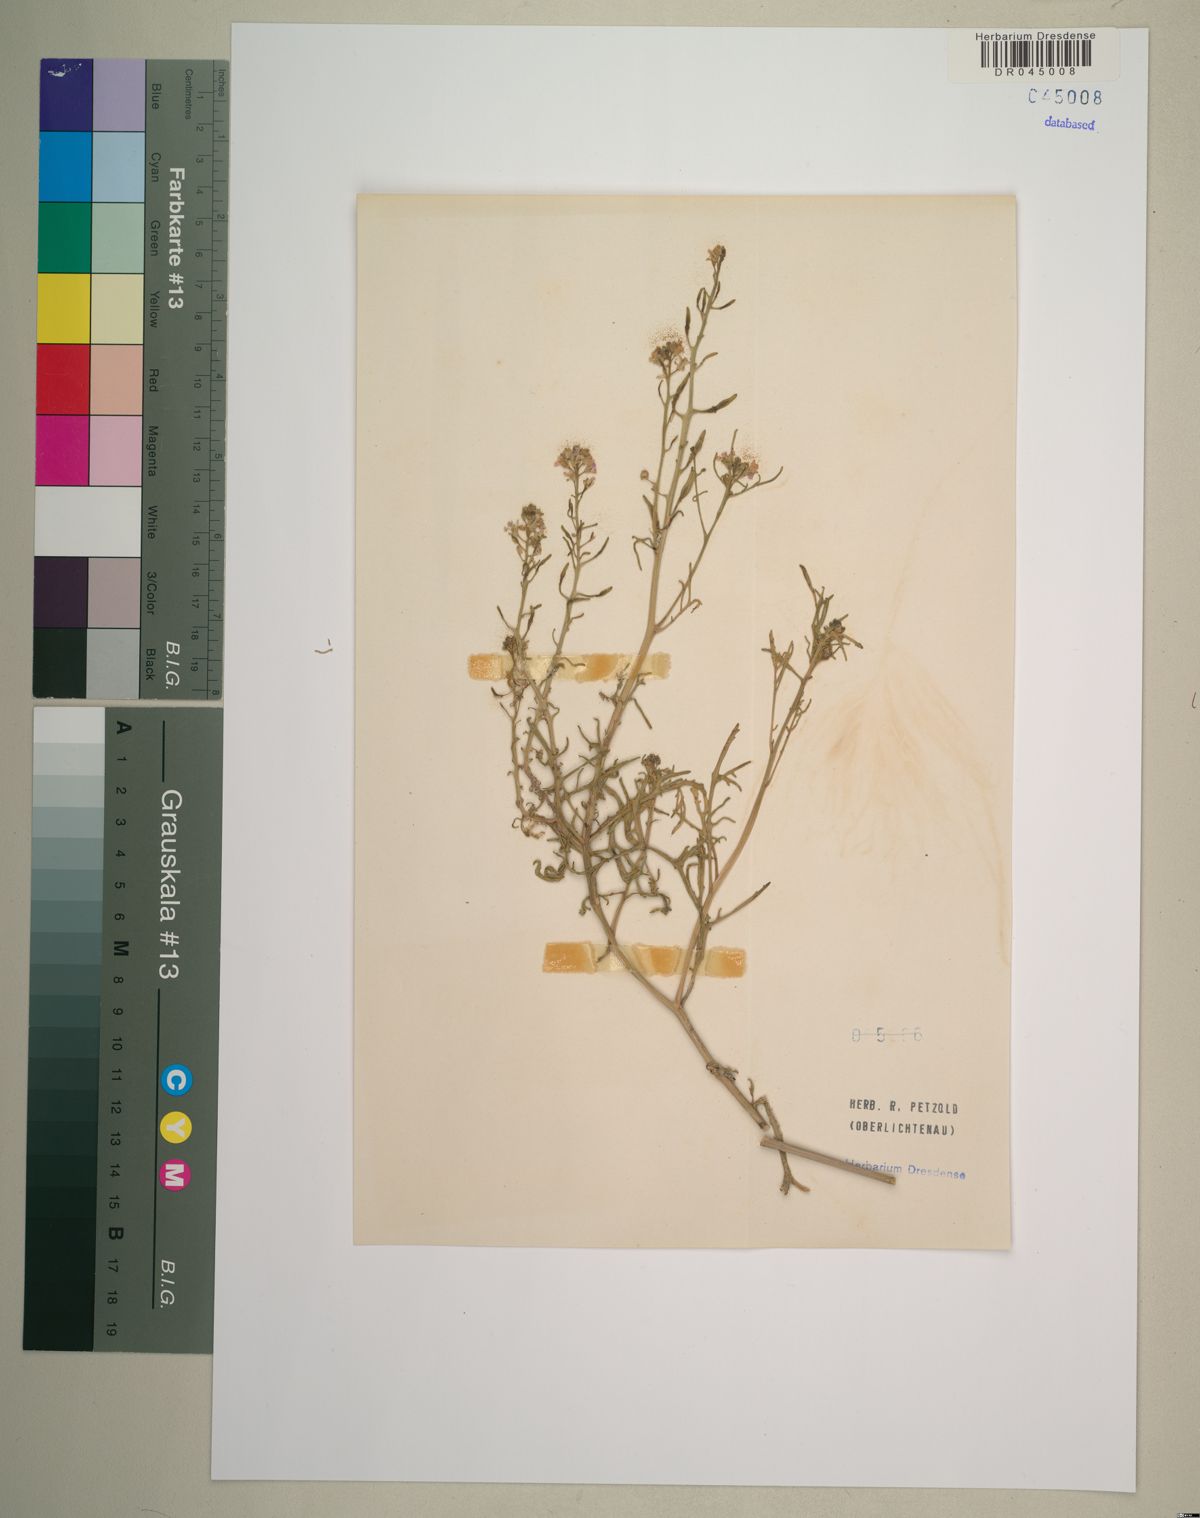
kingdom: Plantae
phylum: Tracheophyta
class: Magnoliopsida
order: Brassicales
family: Brassicaceae
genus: Cakile
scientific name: Cakile maritima
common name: Sea rocket
